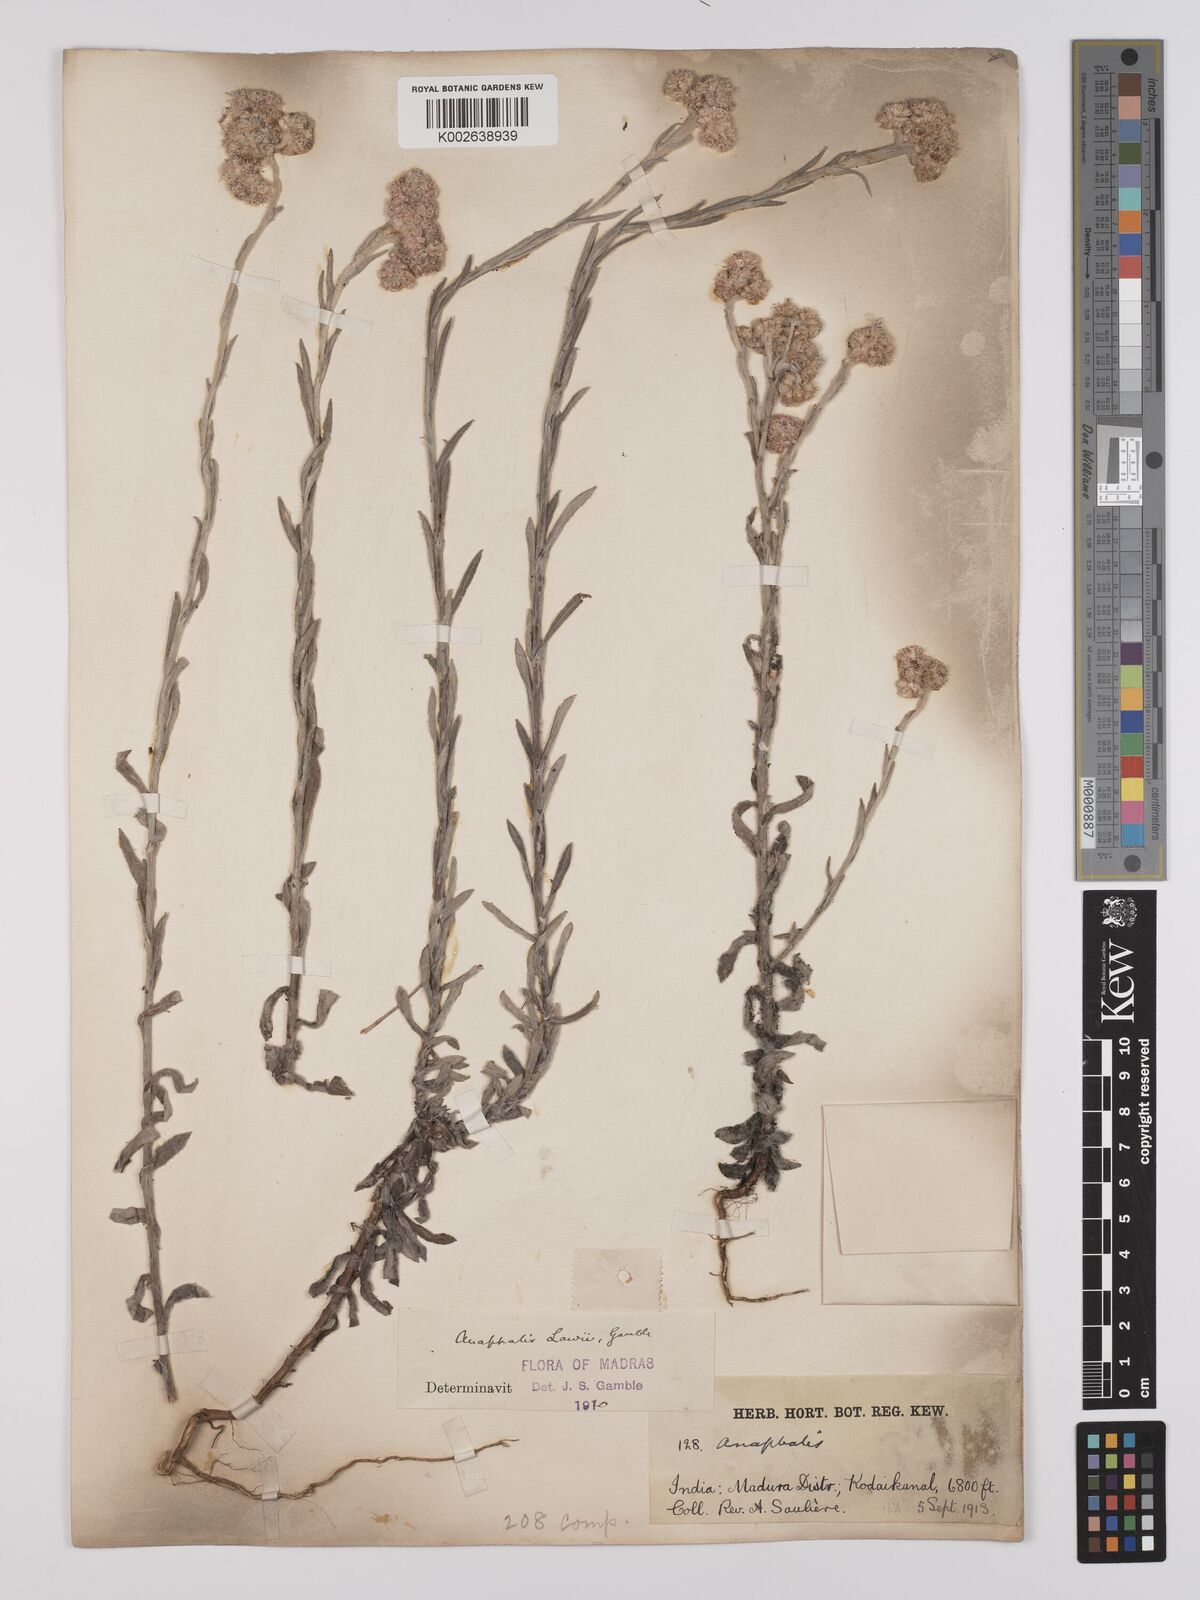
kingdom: Plantae
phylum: Tracheophyta
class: Magnoliopsida
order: Asterales
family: Asteraceae
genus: Anaphalis
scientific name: Anaphalis lawii
